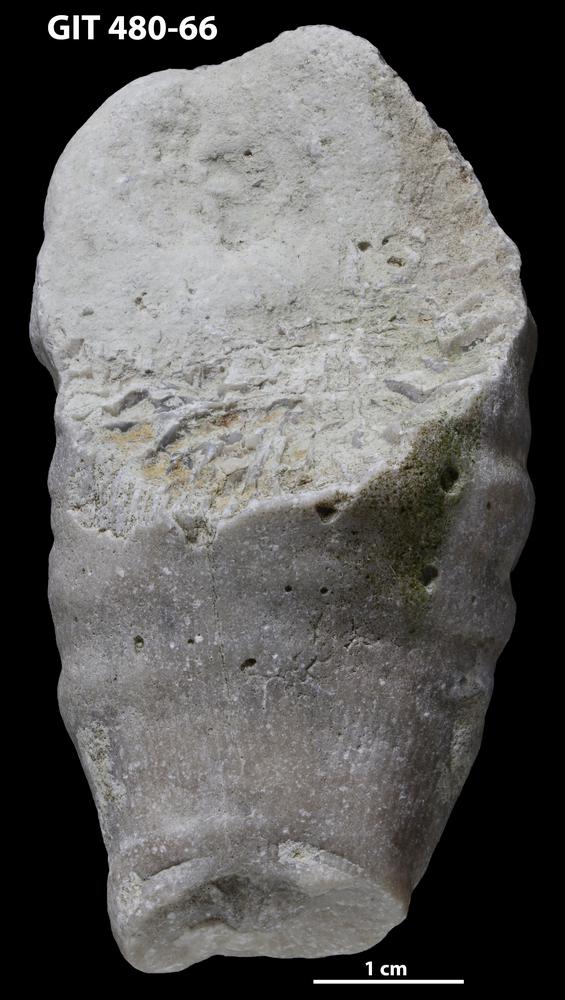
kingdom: Animalia
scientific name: Animalia
